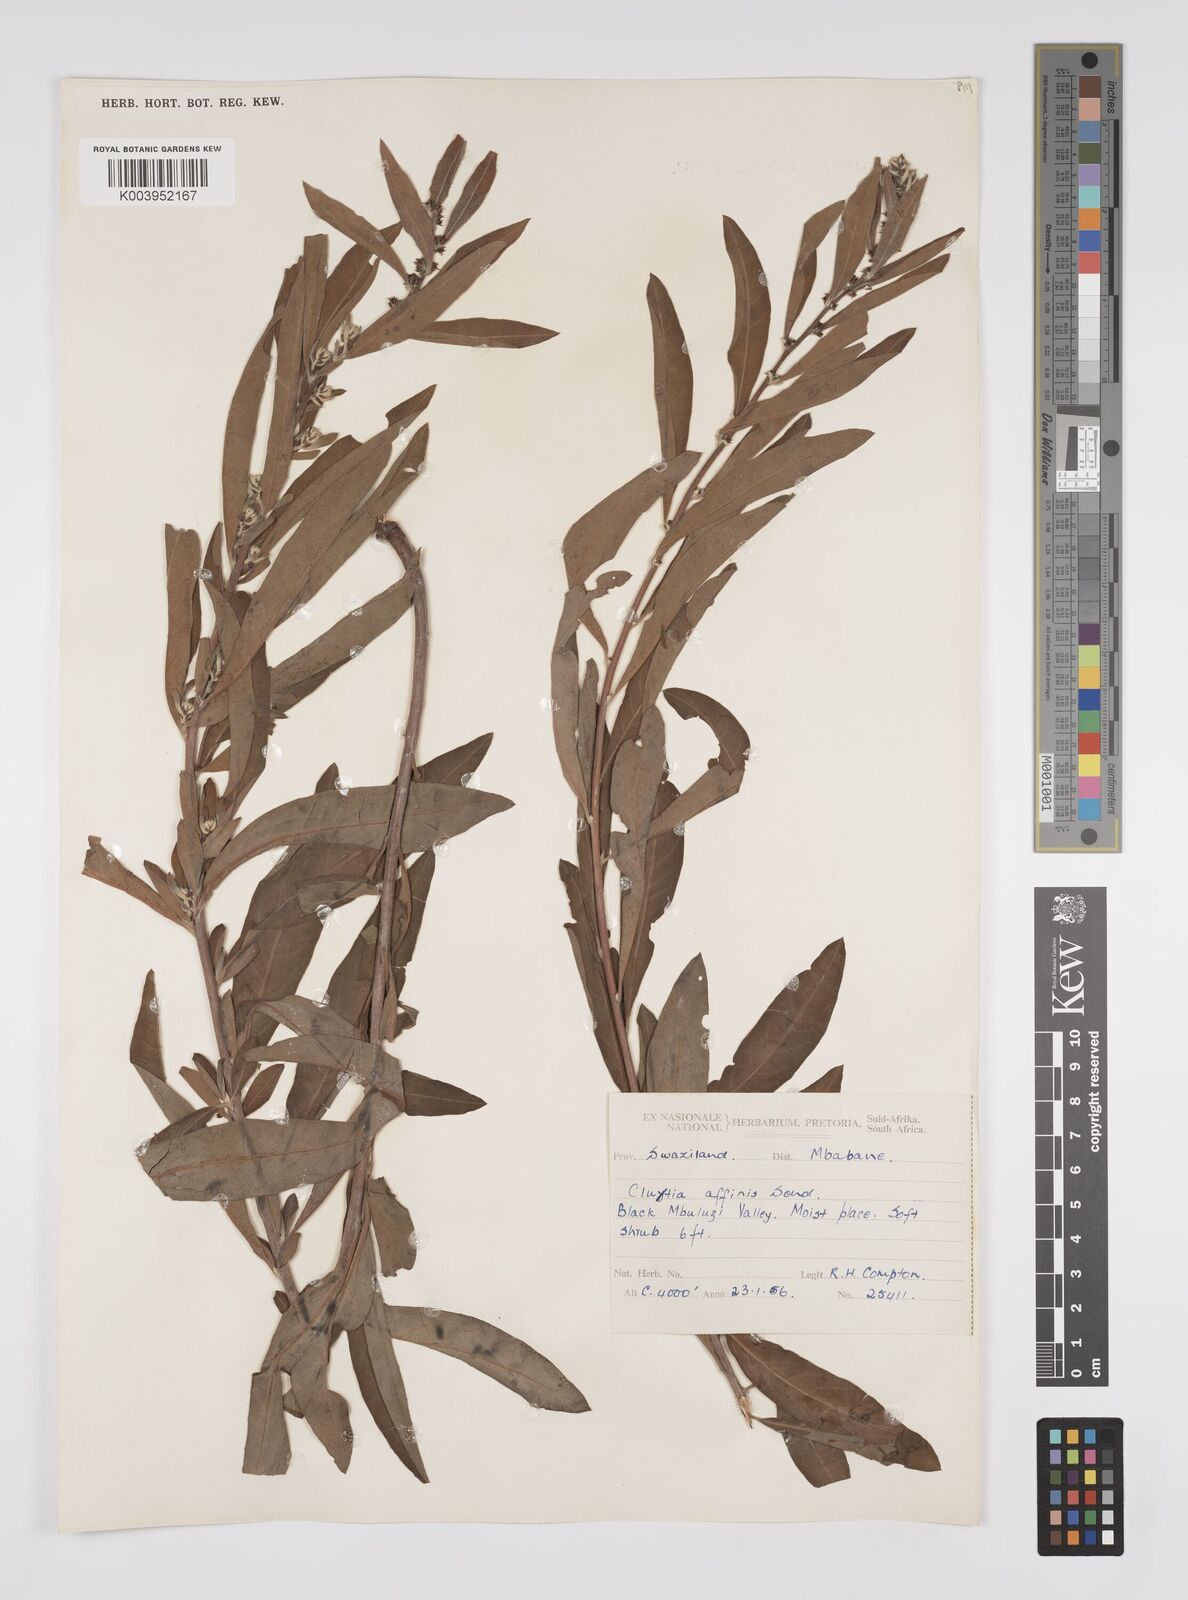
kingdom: Plantae
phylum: Tracheophyta
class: Magnoliopsida
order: Malpighiales
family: Peraceae
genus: Clutia
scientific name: Clutia affinis
